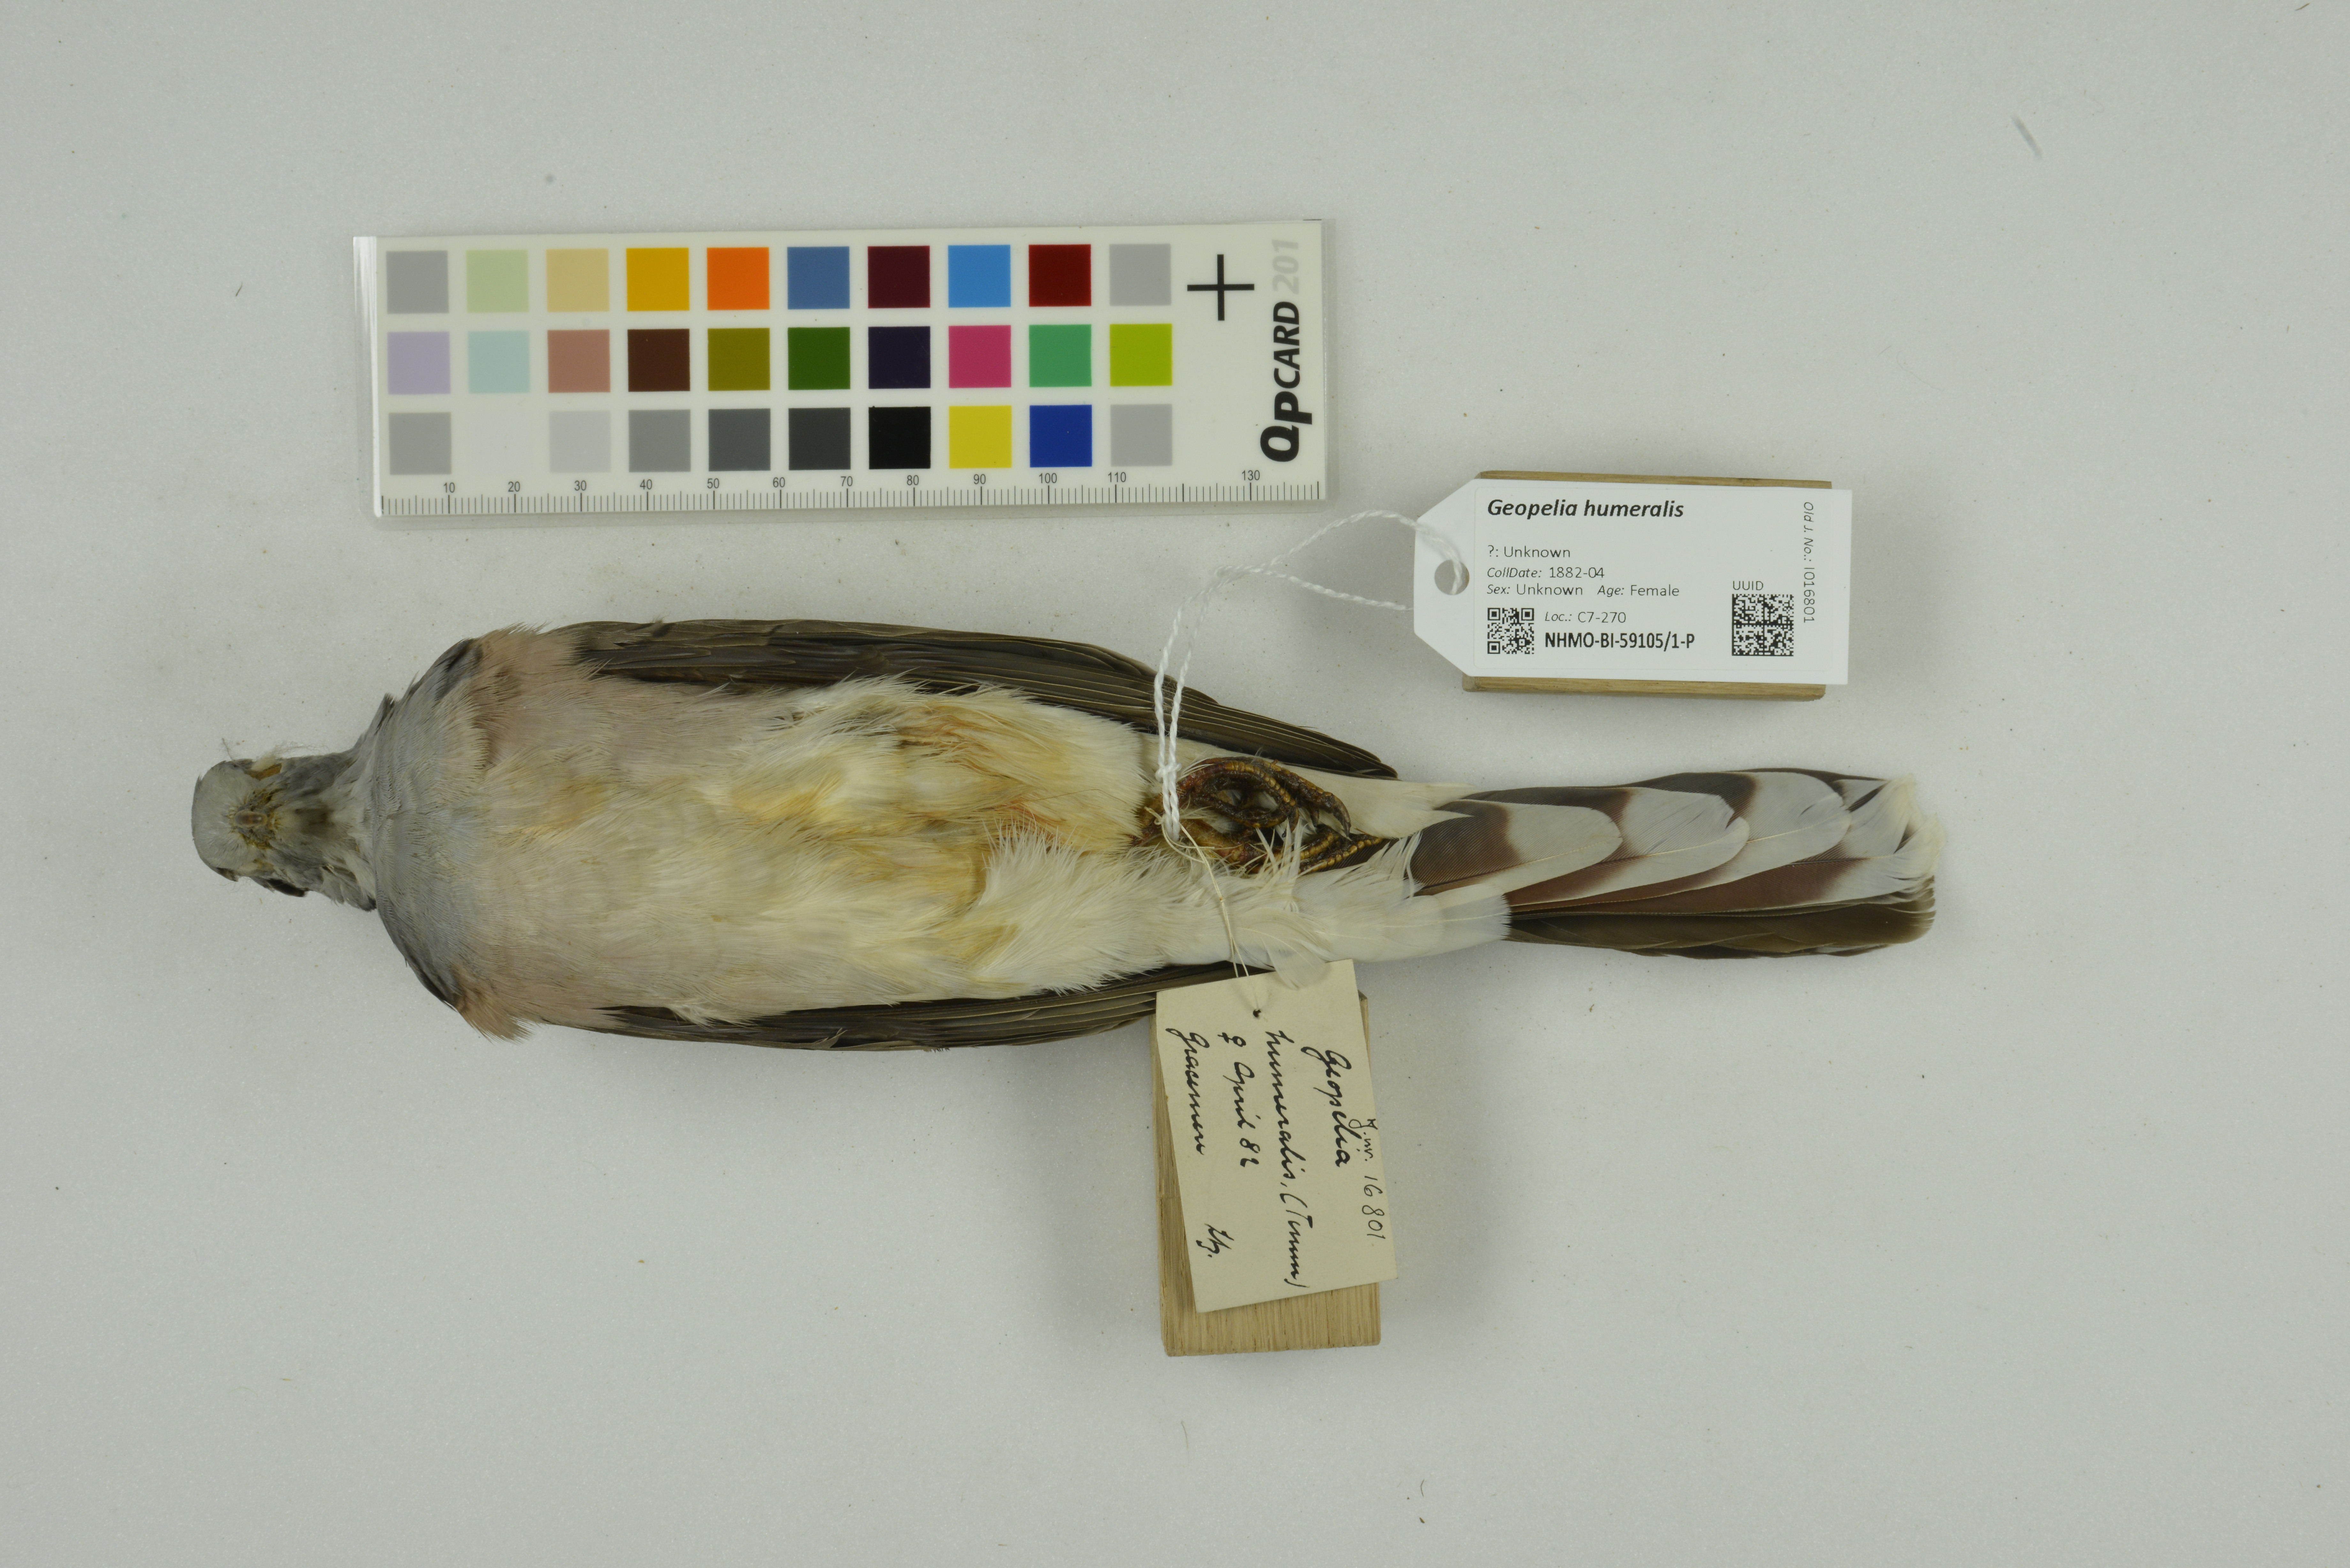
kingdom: Animalia
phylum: Chordata
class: Aves
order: Columbiformes
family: Columbidae
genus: Geopelia
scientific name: Geopelia humeralis
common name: Bar-shouldered dove
